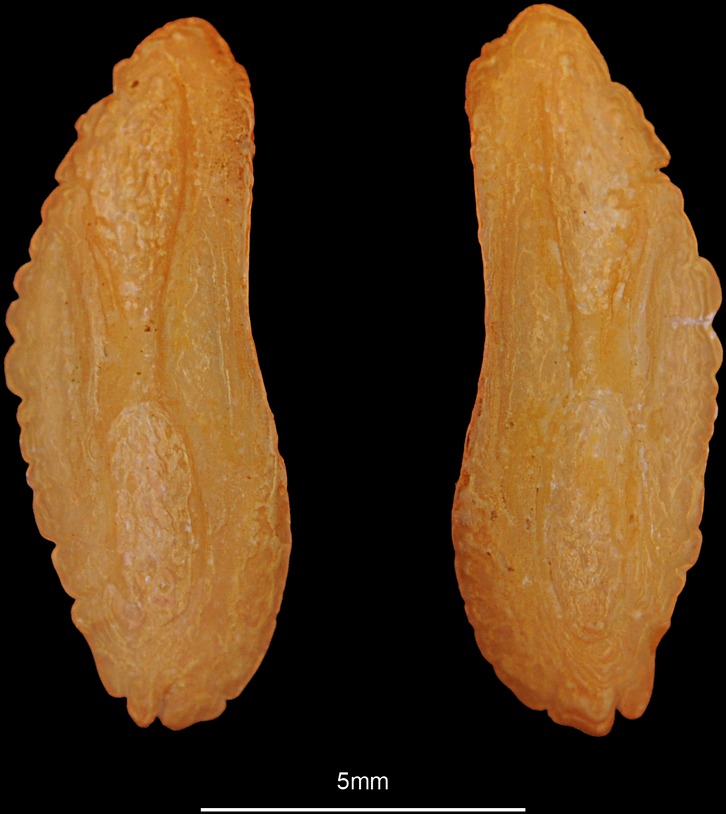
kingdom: Animalia
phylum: Chordata
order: Gadiformes
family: Lotidae
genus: Molva
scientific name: Molva molva
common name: Ling
